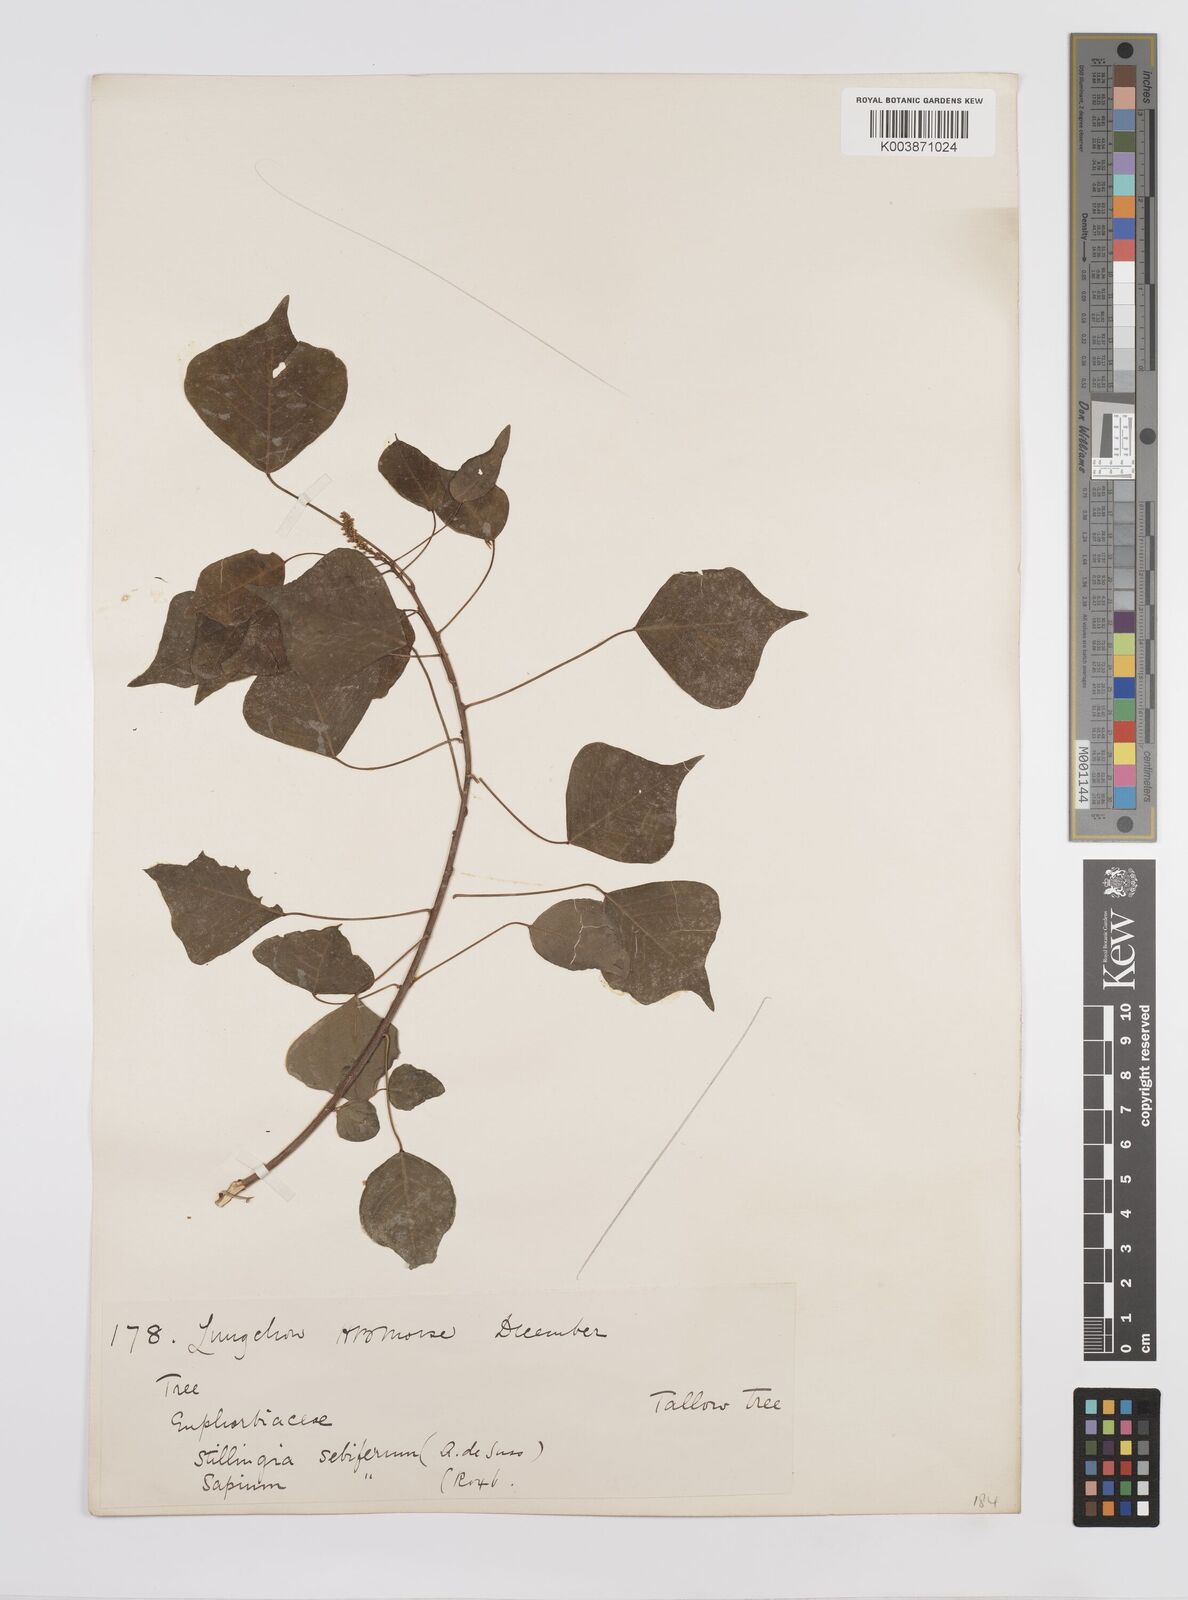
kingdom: Plantae
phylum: Tracheophyta
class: Magnoliopsida
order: Malpighiales
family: Euphorbiaceae
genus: Triadica
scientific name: Triadica sebifera
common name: Chinese tallow
